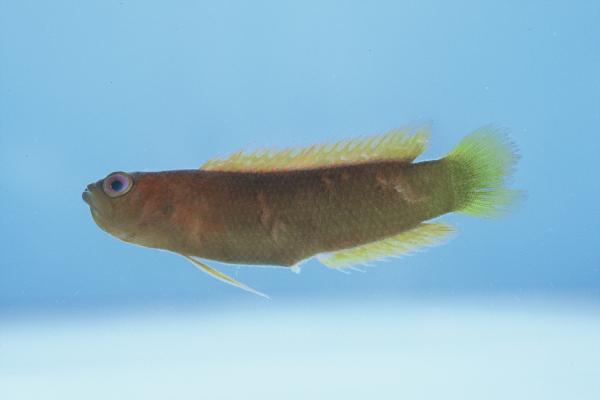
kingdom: Animalia
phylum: Chordata
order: Perciformes
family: Pseudochromidae
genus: Chlidichthys
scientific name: Chlidichthys pembae
